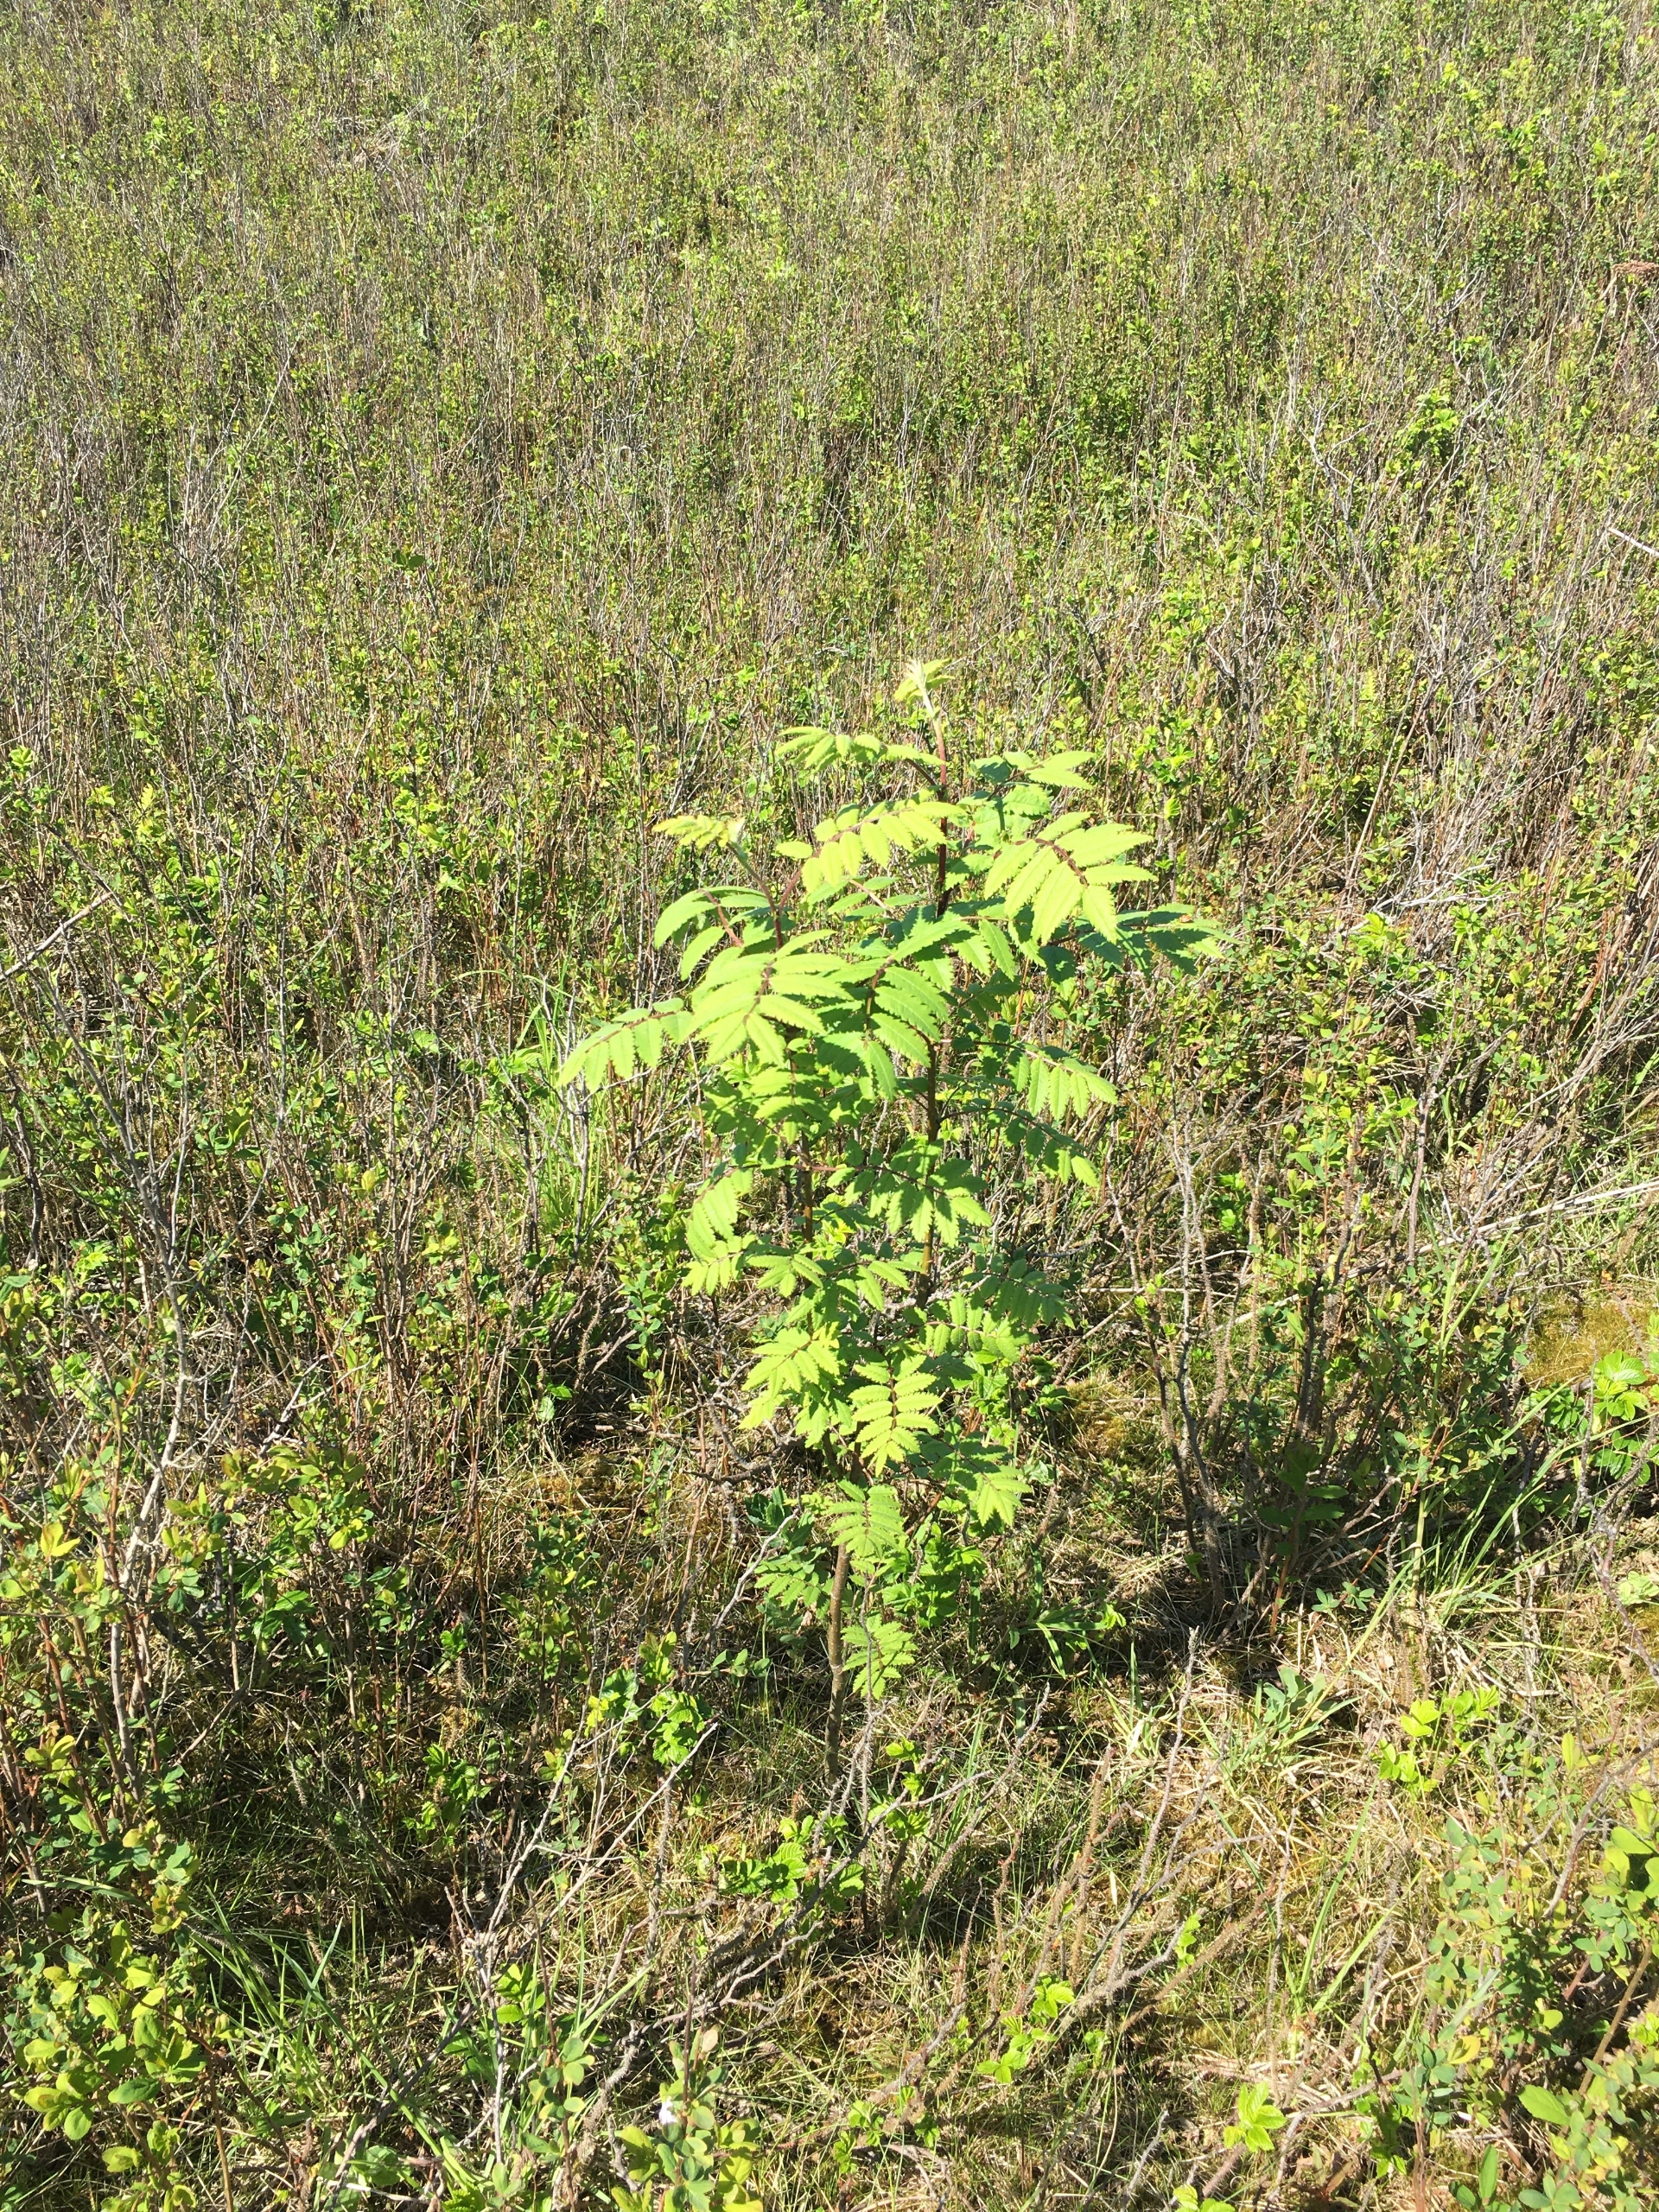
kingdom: Plantae
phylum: Tracheophyta
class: Magnoliopsida
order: Rosales
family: Rosaceae
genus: Sorbus
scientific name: Sorbus aucuparia
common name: Almindelig røn
